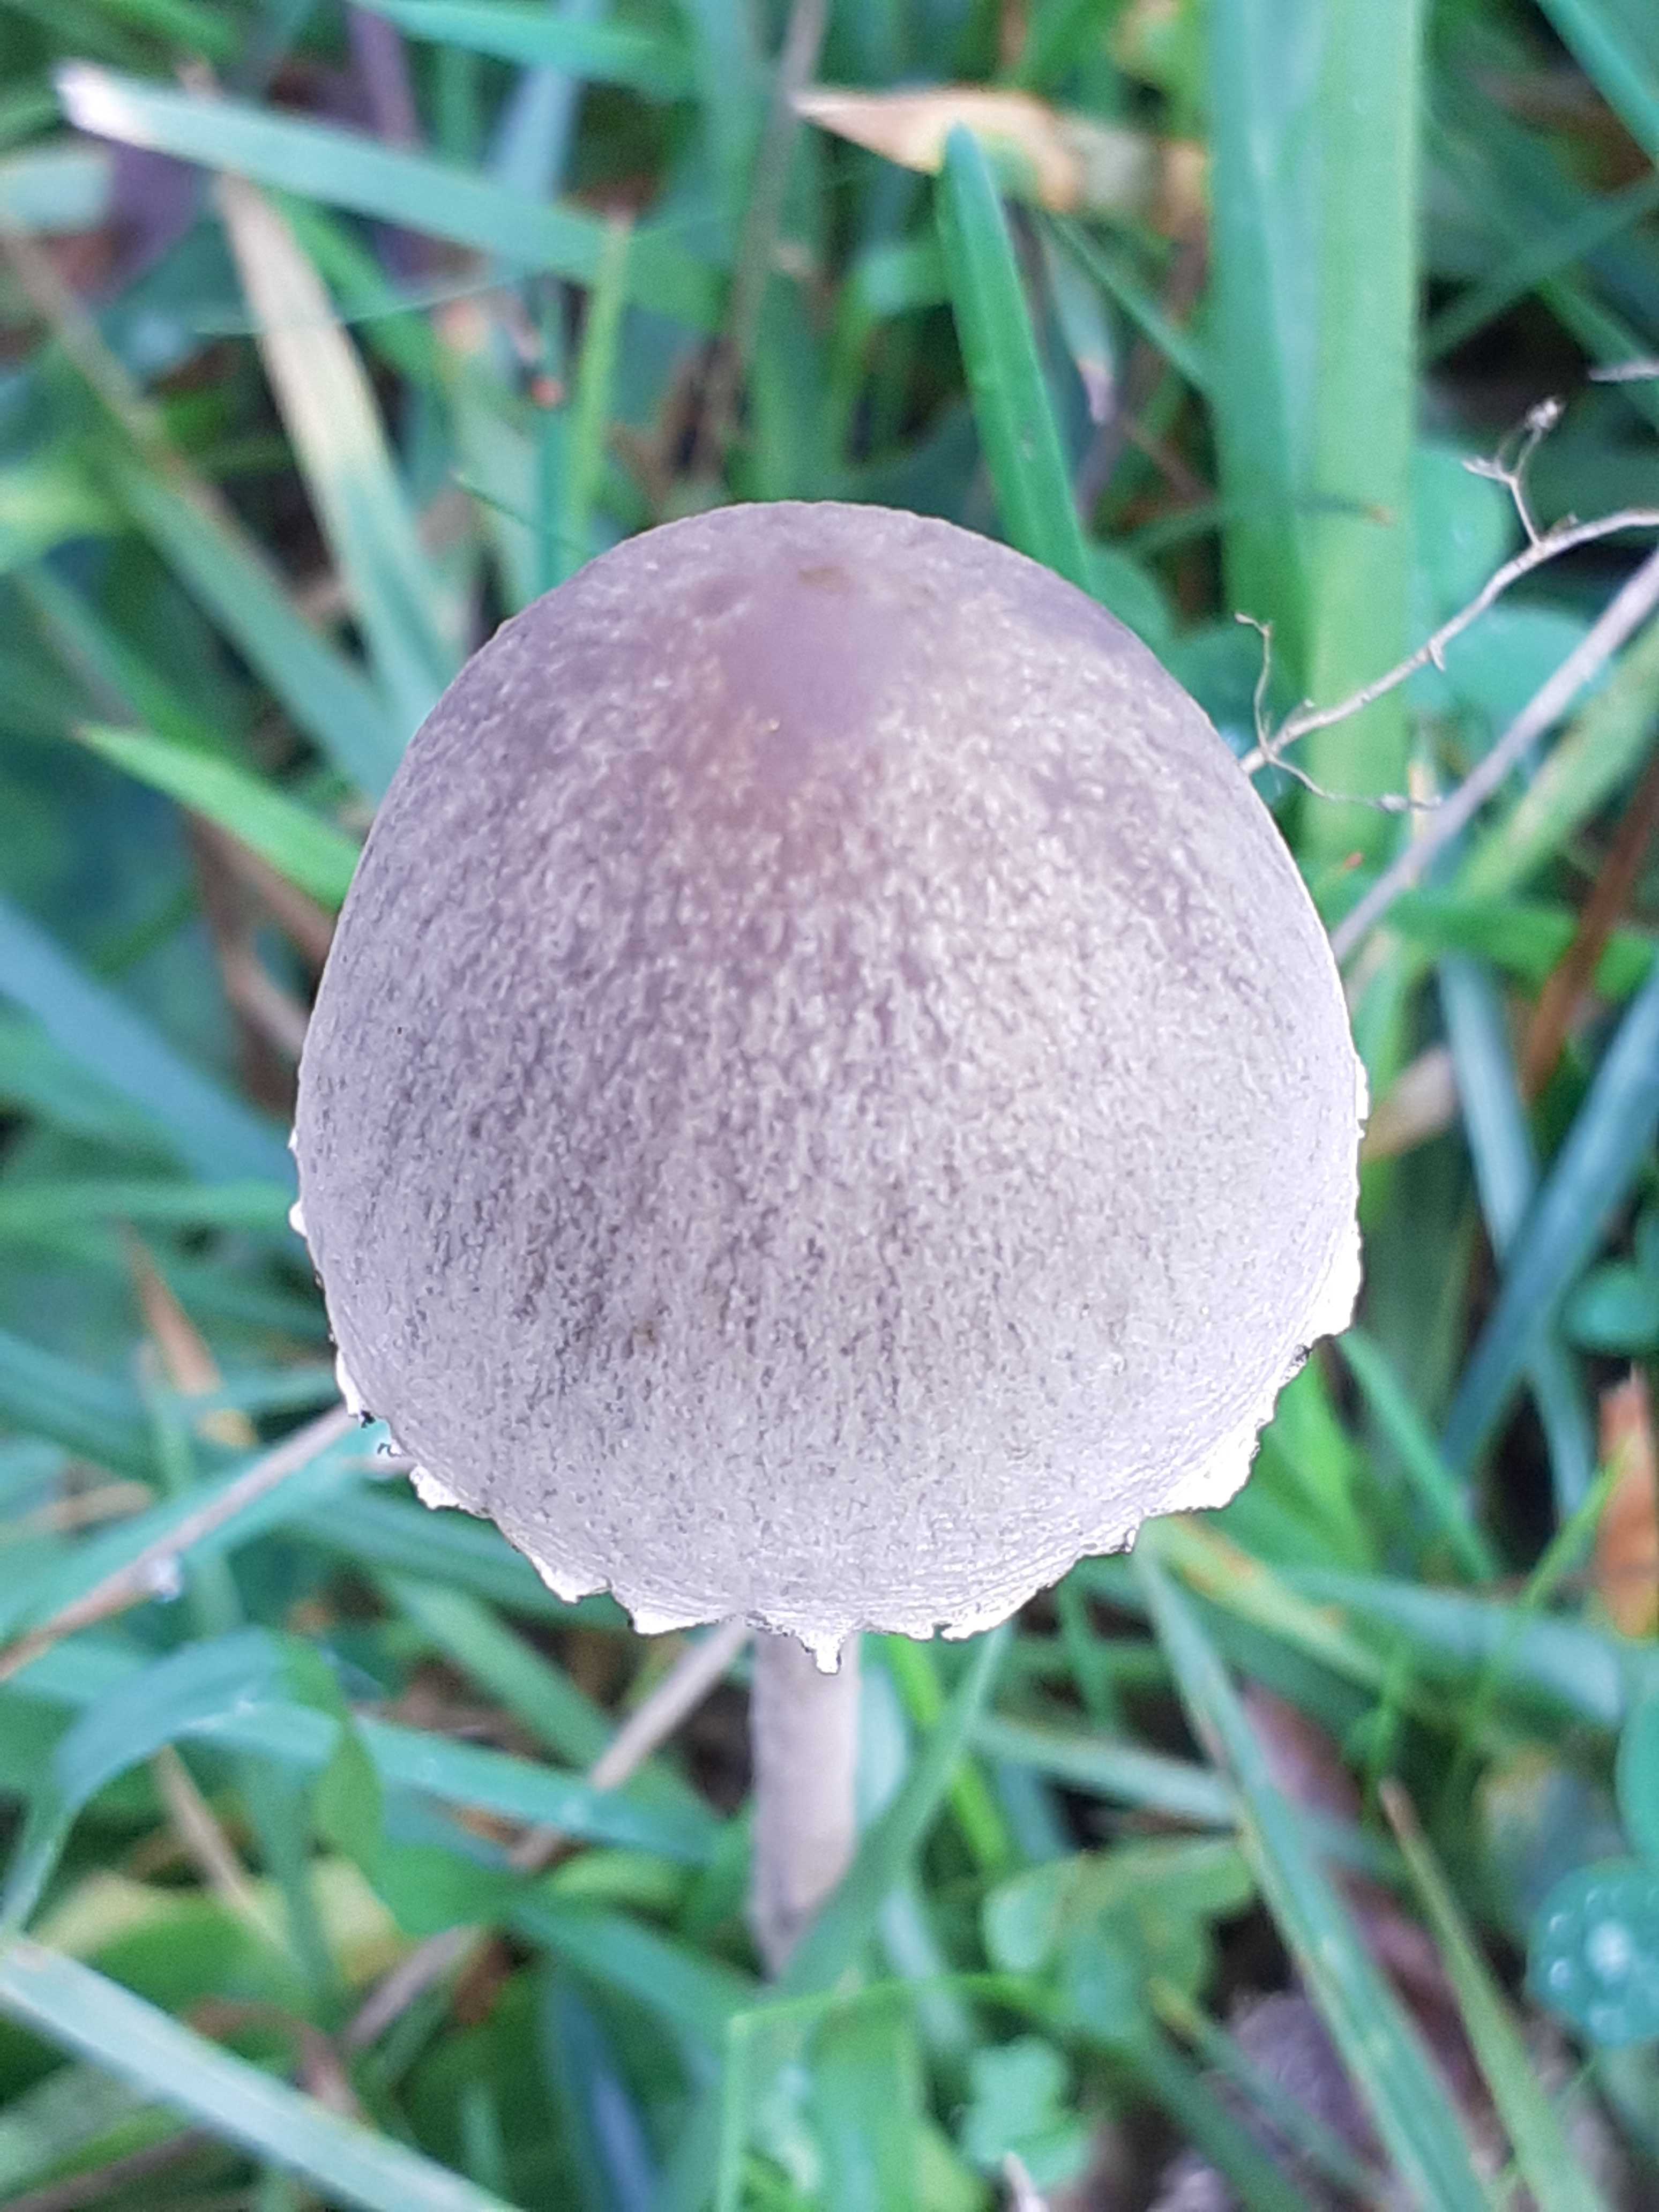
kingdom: Fungi
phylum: Basidiomycota
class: Agaricomycetes
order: Agaricales
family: Bolbitiaceae
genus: Panaeolus
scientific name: Panaeolus papilionaceus
